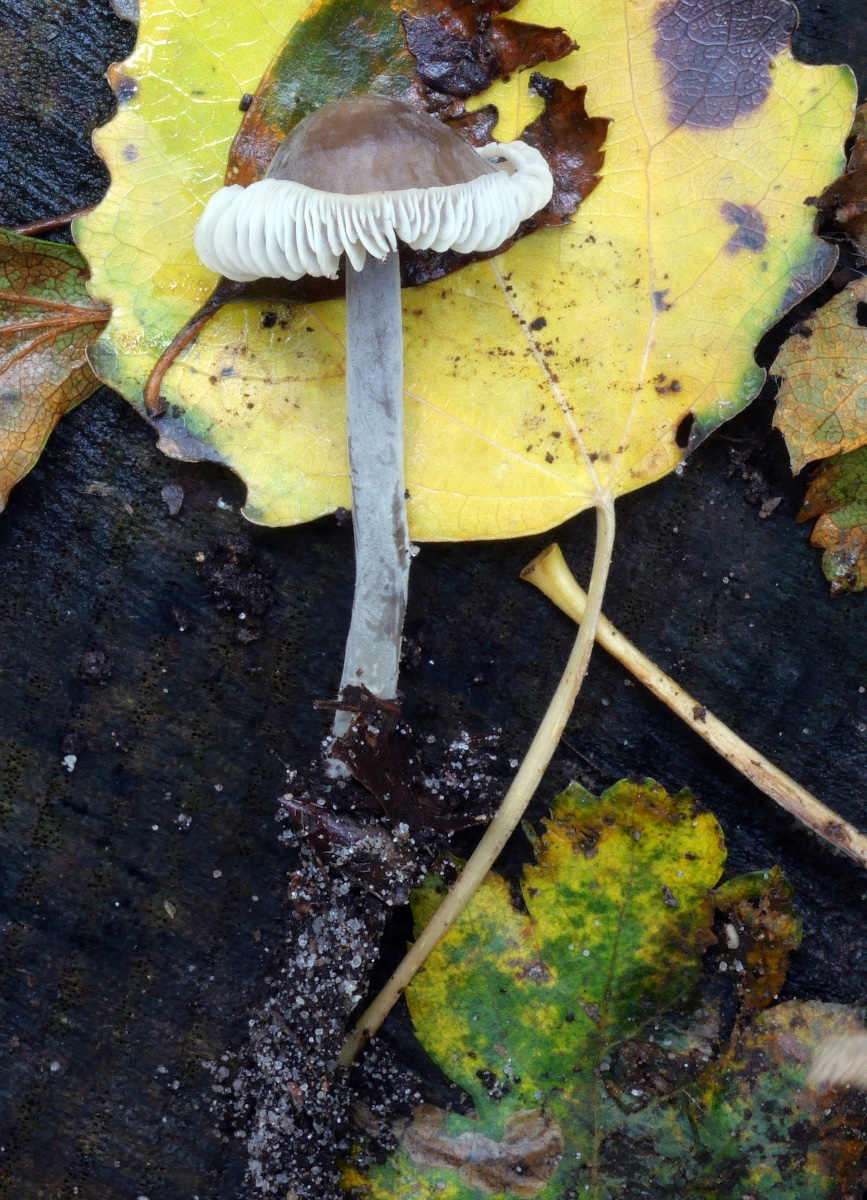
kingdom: Fungi
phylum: Basidiomycota
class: Agaricomycetes
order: Agaricales
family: Tricholomataceae
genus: Mycenella
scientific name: Mycenella trachyspora
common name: rødprikket dughat
